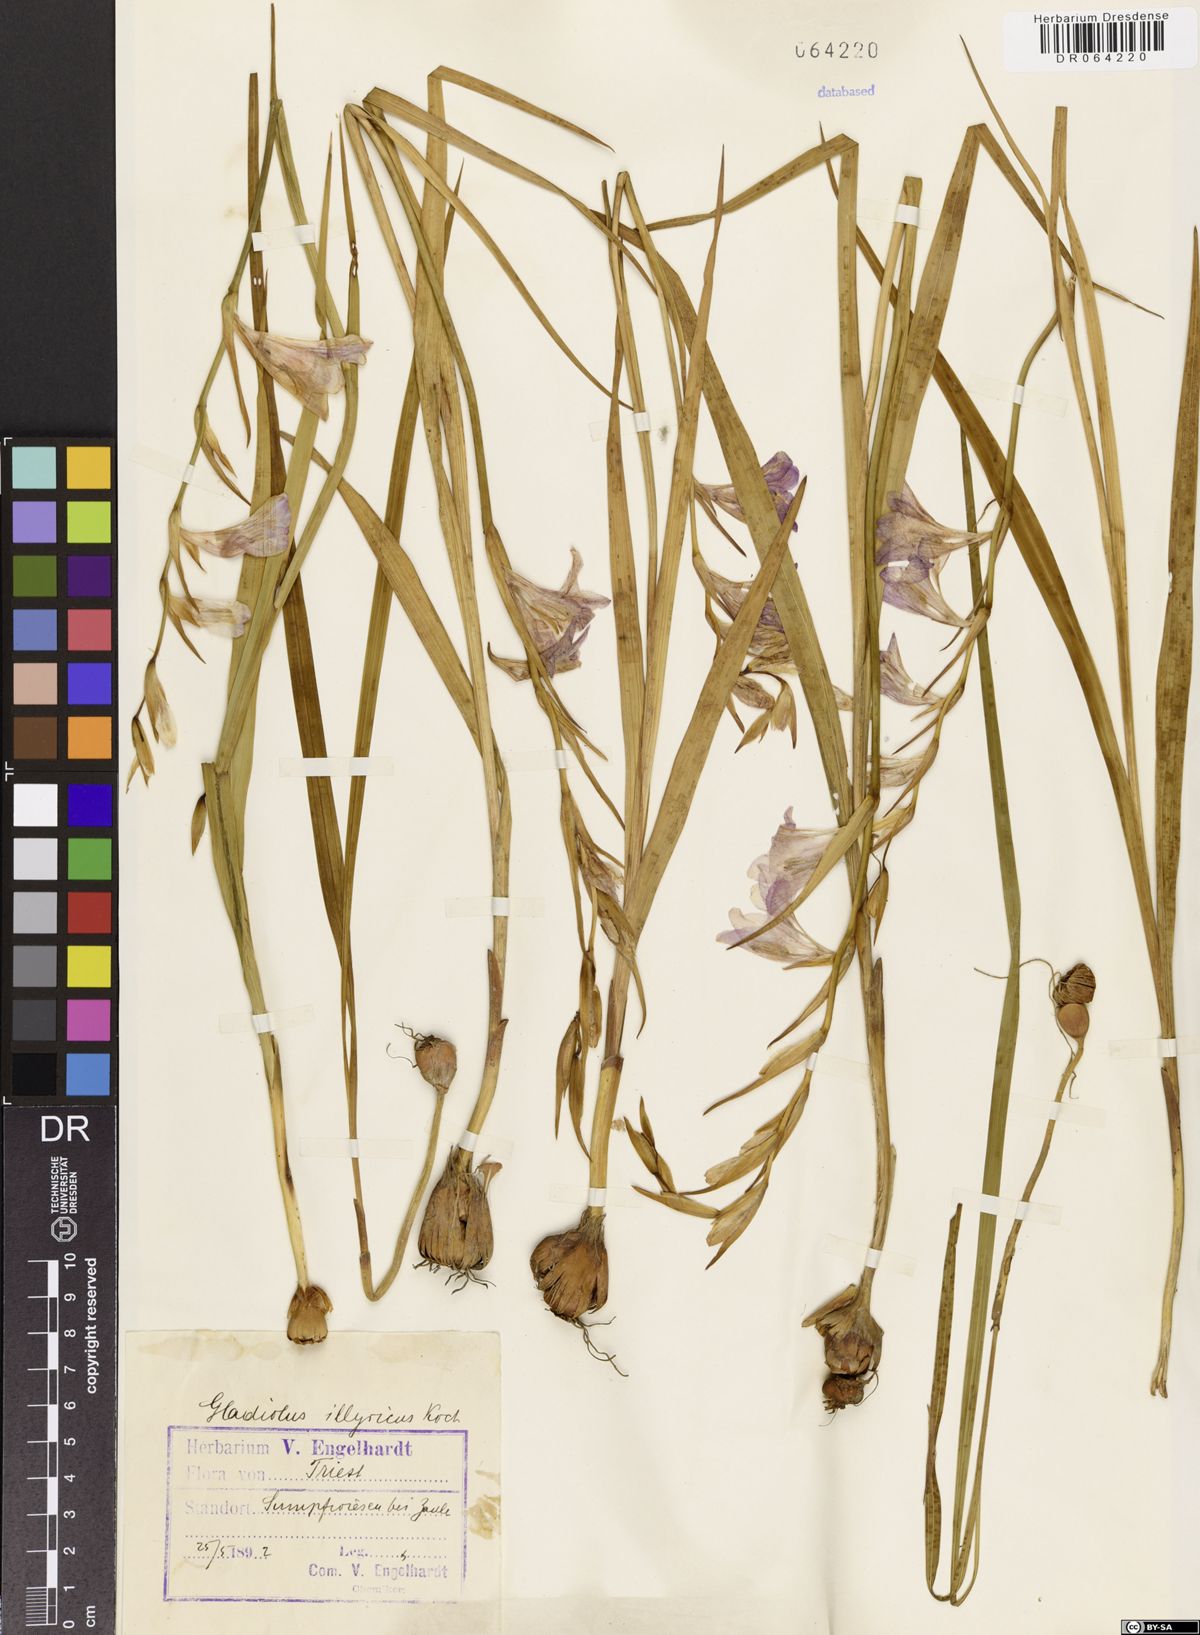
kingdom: Plantae
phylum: Tracheophyta
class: Liliopsida
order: Asparagales
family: Iridaceae
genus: Gladiolus
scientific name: Gladiolus illyricus
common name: Wild gladiolus
